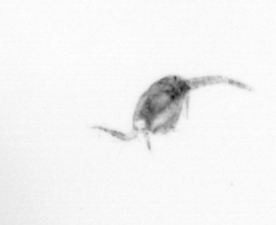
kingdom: Animalia
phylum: Arthropoda
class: Copepoda
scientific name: Copepoda
